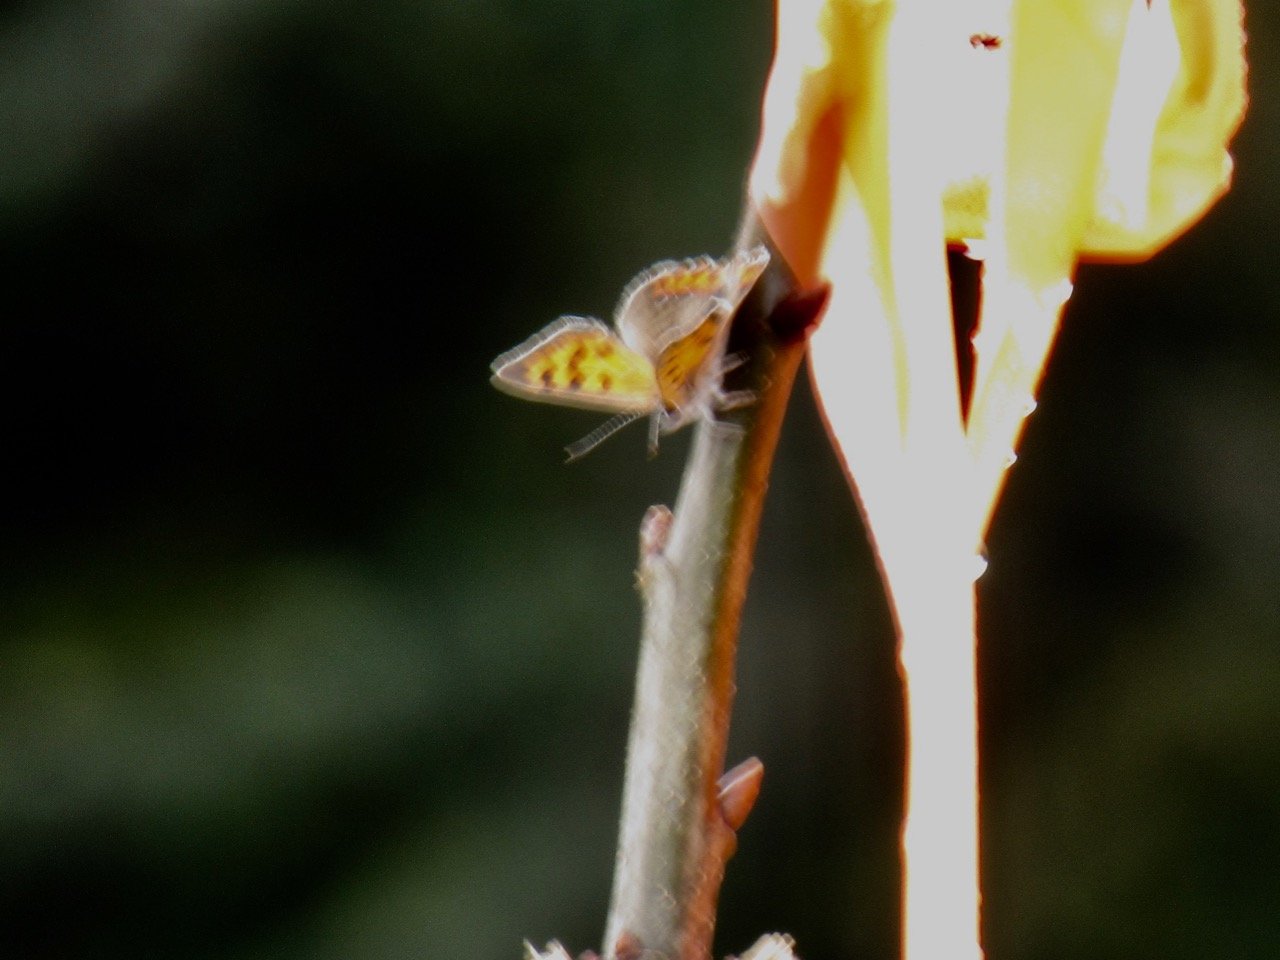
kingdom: Animalia
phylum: Arthropoda
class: Insecta
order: Lepidoptera
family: Lycaenidae
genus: Lycaena
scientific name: Lycaena phlaeas
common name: American Copper
